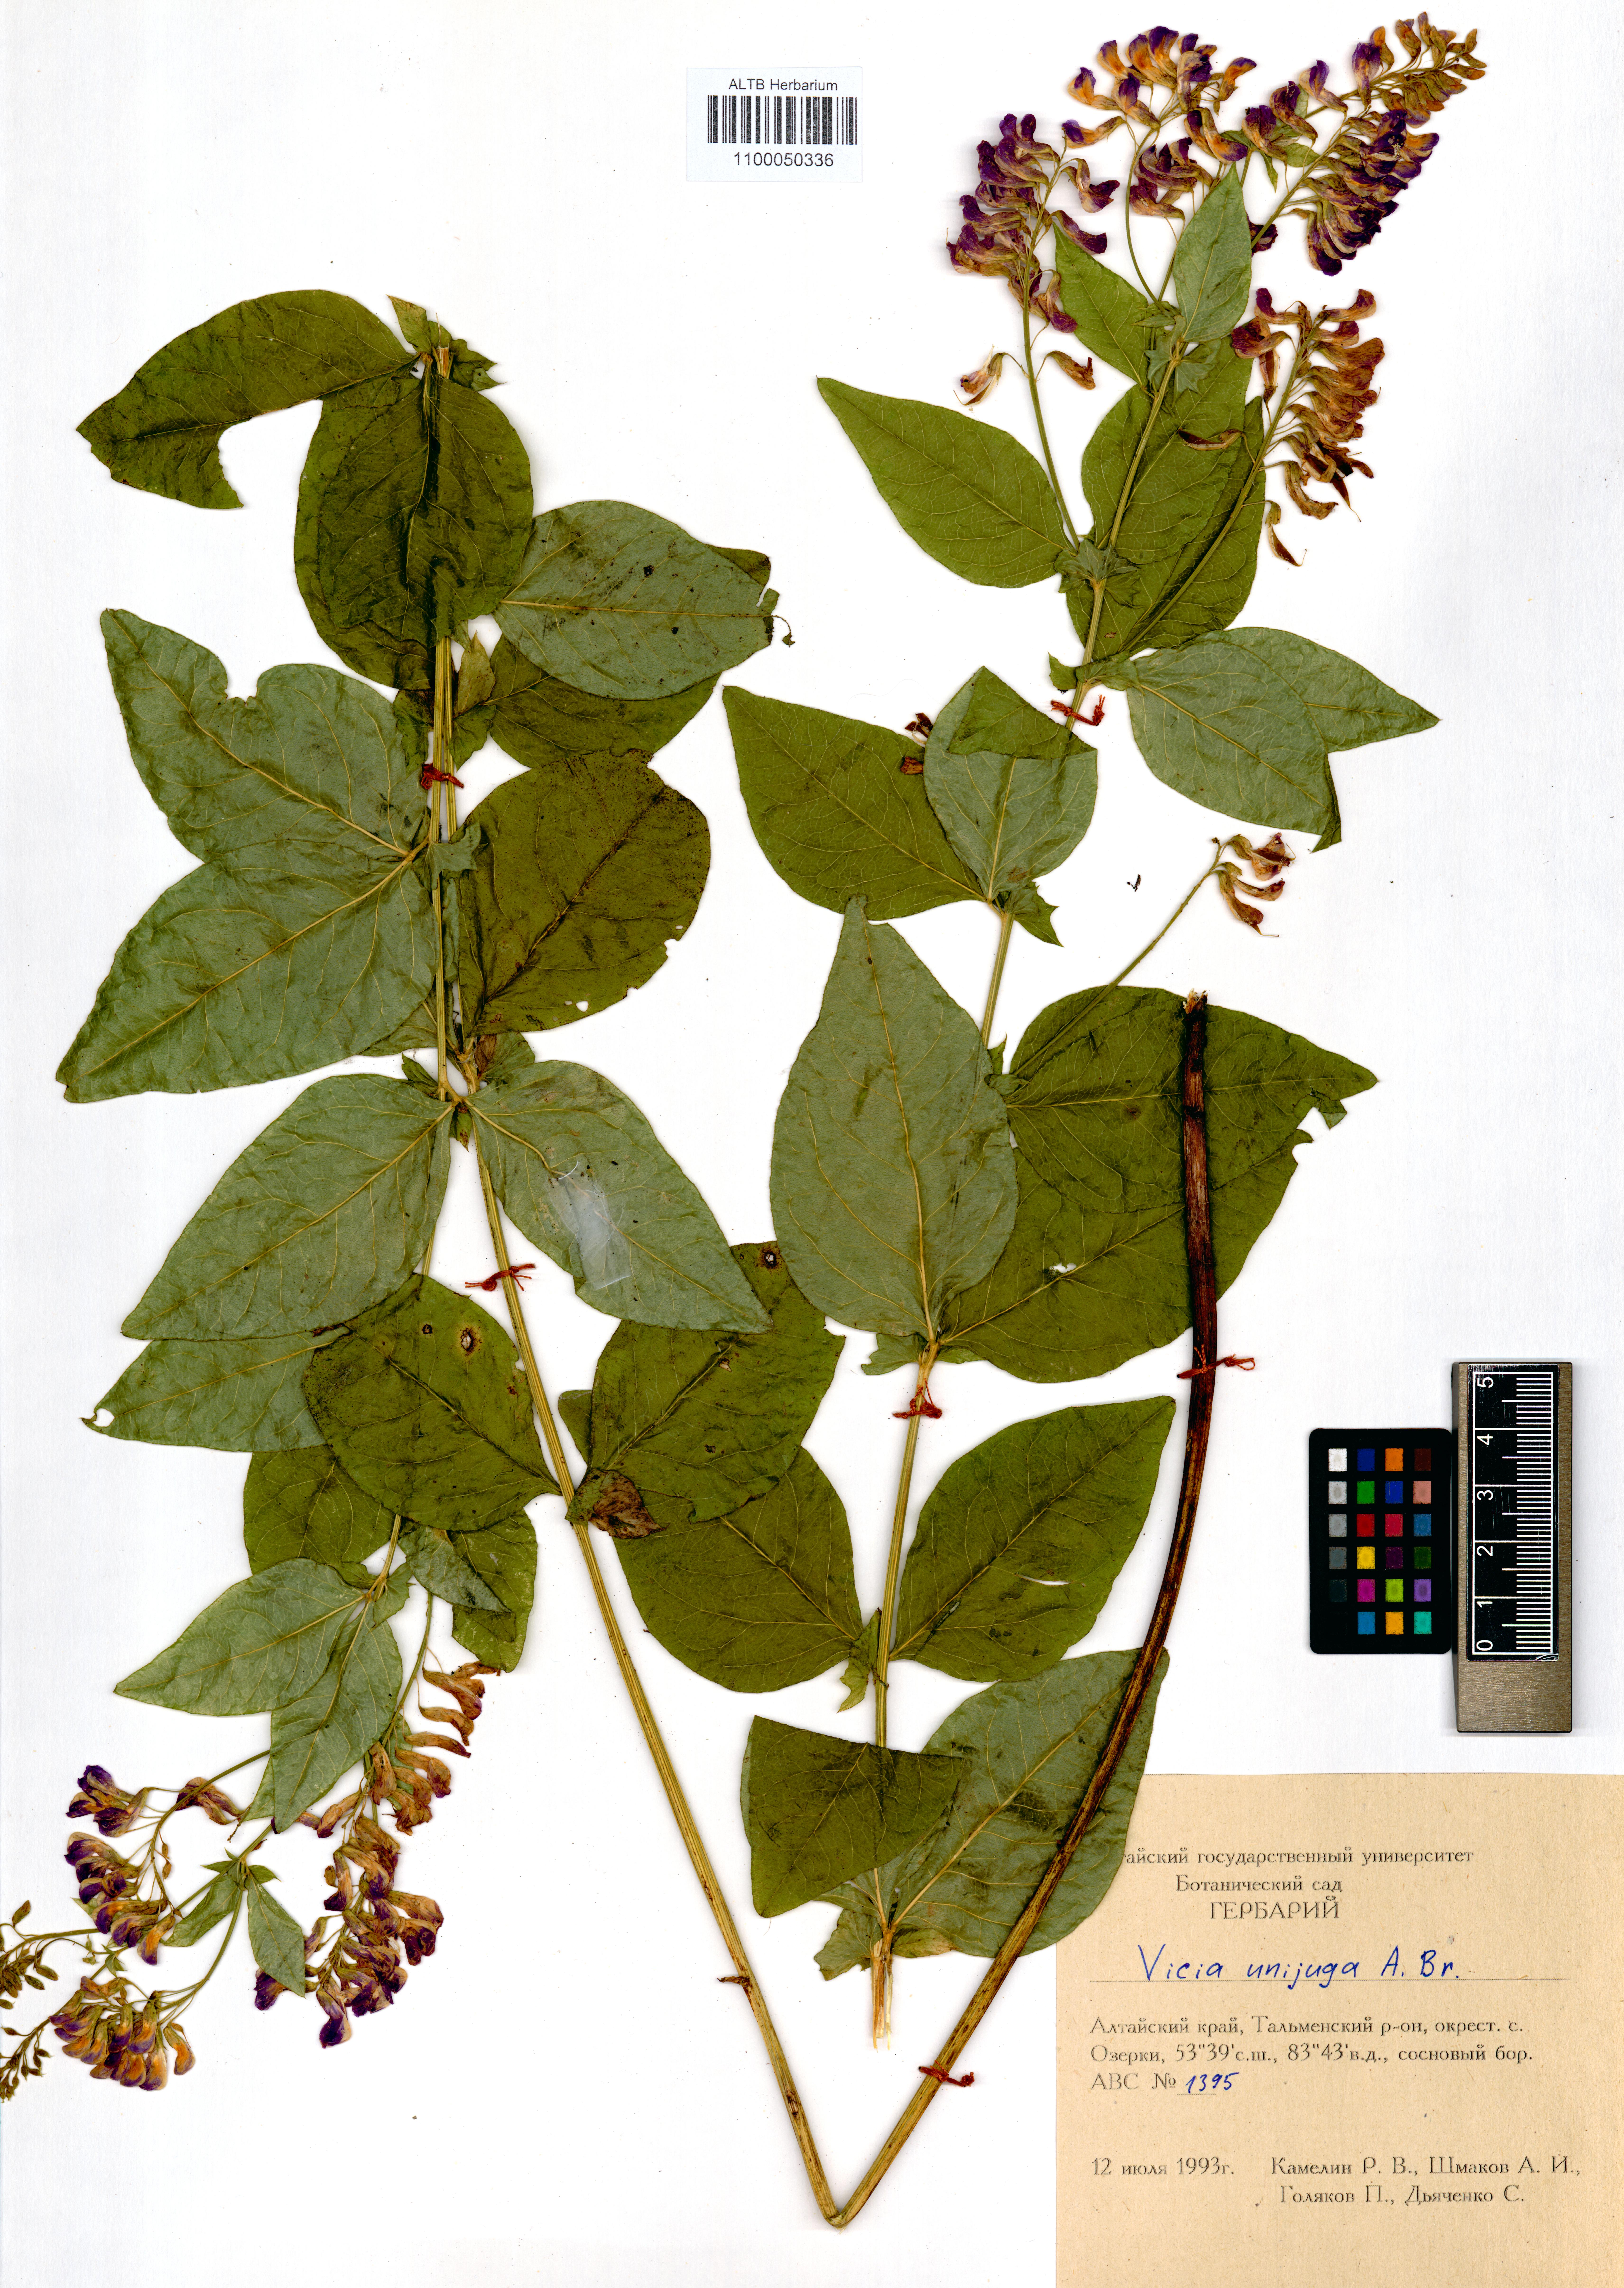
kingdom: Plantae
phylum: Tracheophyta
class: Magnoliopsida
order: Fabales
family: Fabaceae
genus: Vicia
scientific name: Vicia unijuga
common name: Two-leaf vetch
